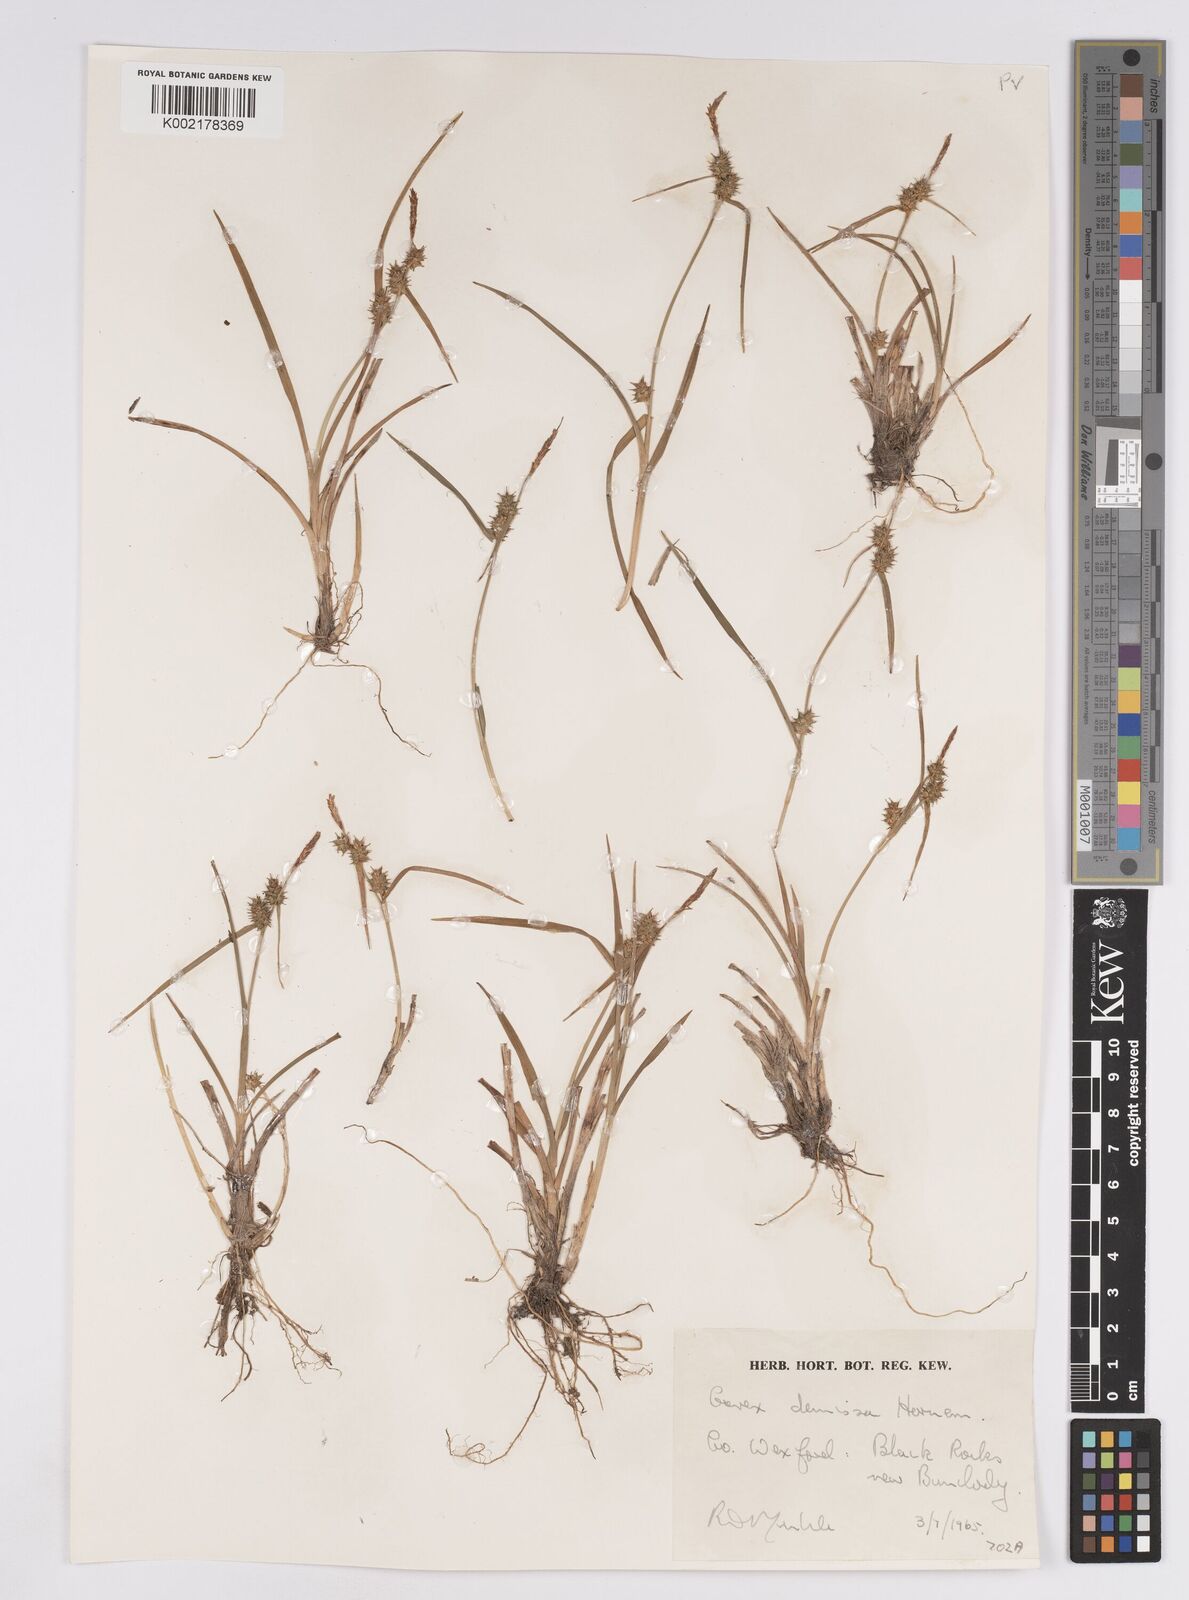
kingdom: Plantae
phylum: Tracheophyta
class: Liliopsida
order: Poales
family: Cyperaceae
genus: Carex
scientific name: Carex demissa
